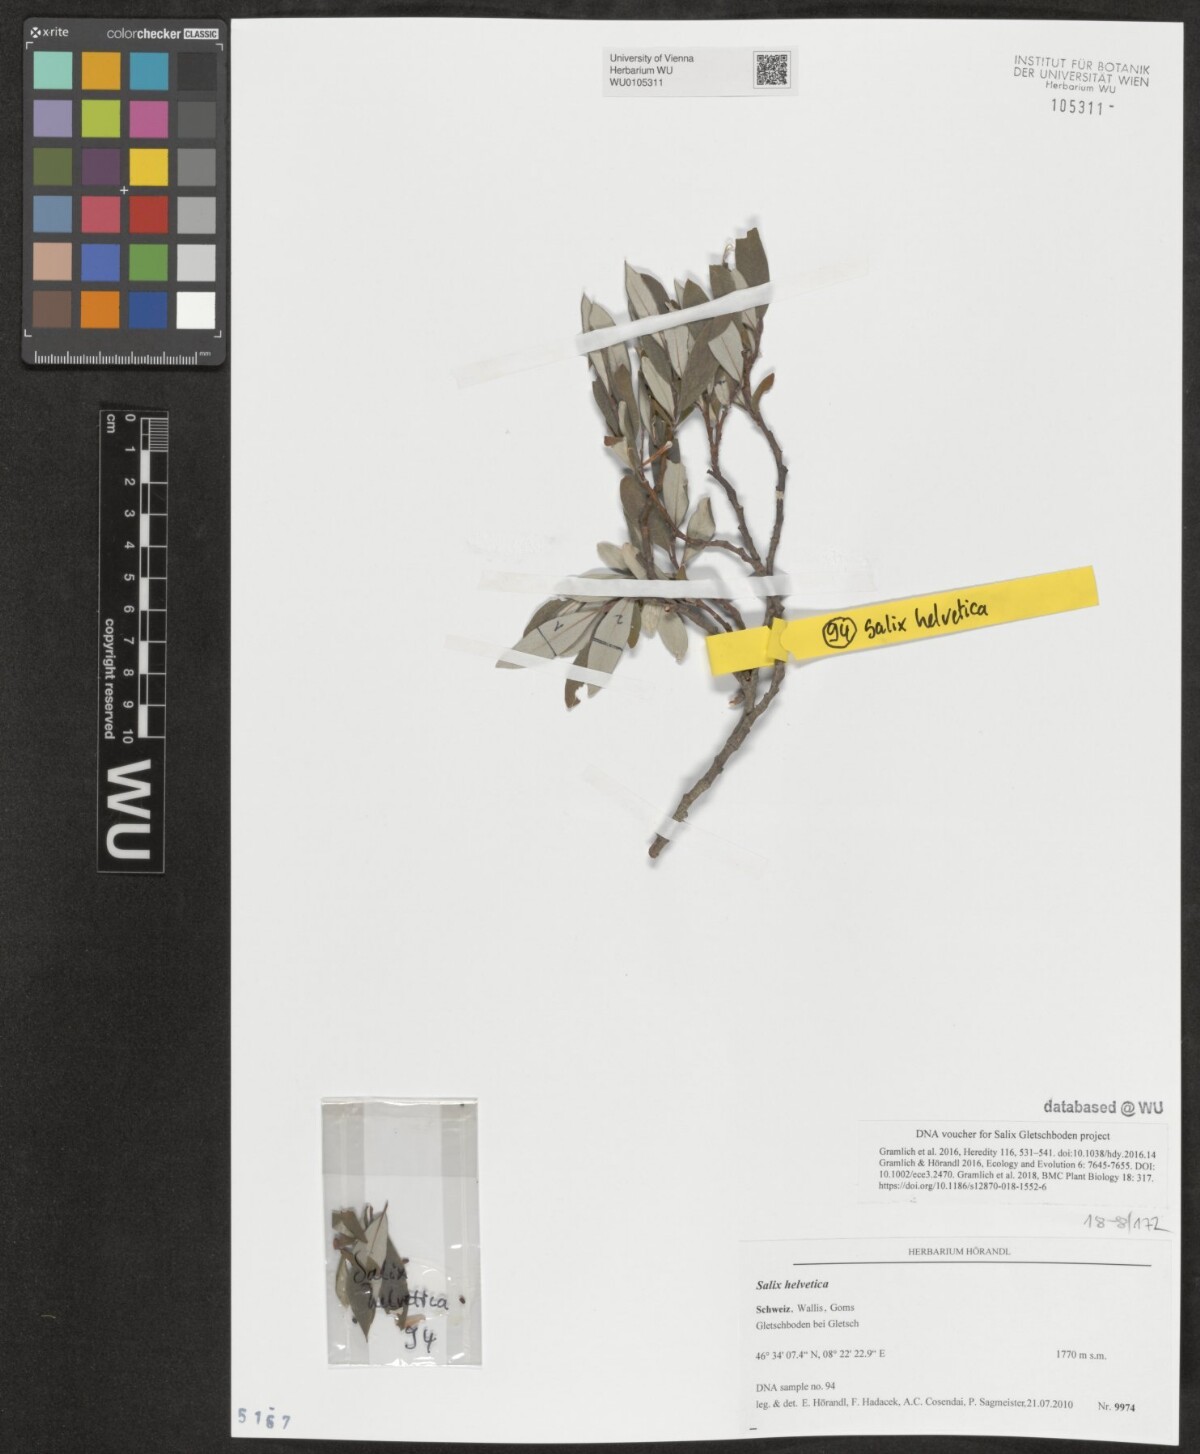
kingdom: Plantae
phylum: Tracheophyta
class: Magnoliopsida
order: Malpighiales
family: Salicaceae
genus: Salix
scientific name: Salix helvetica
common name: Swiss willow
